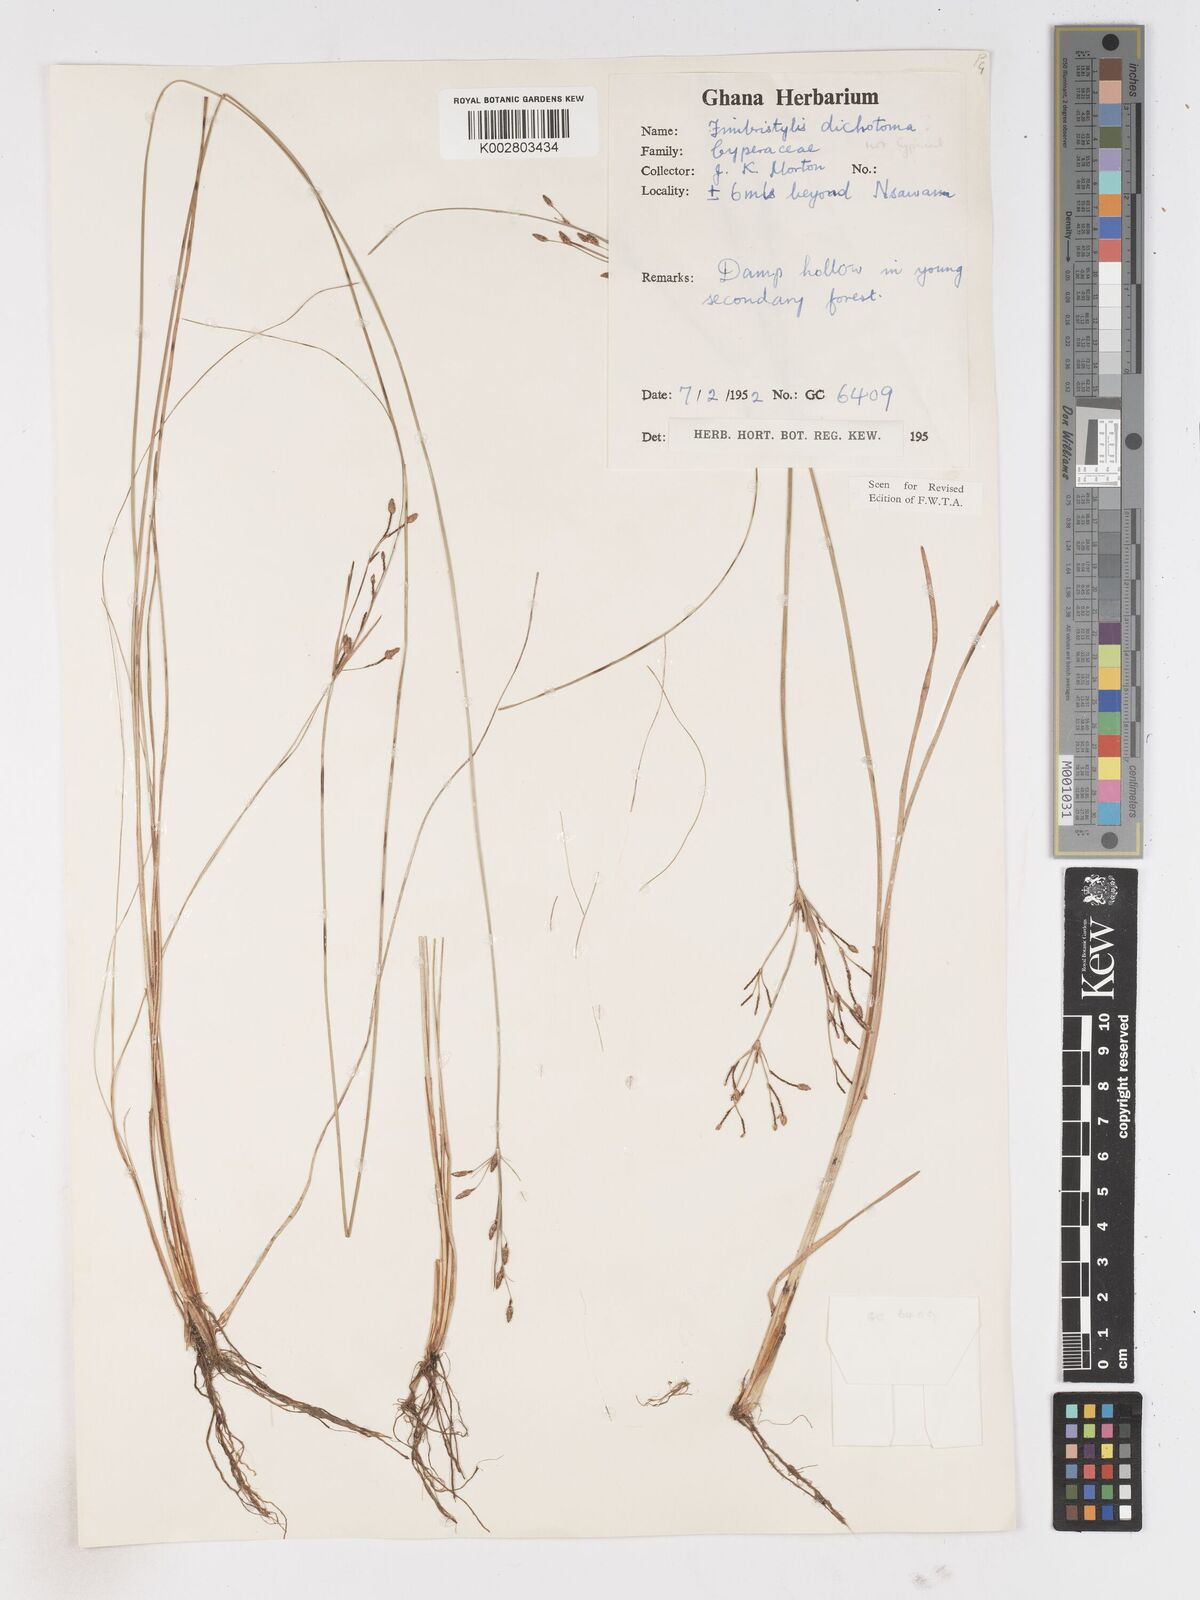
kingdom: Plantae
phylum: Tracheophyta
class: Liliopsida
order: Poales
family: Cyperaceae
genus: Fimbristylis
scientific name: Fimbristylis dichotoma
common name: Forked fimbry
